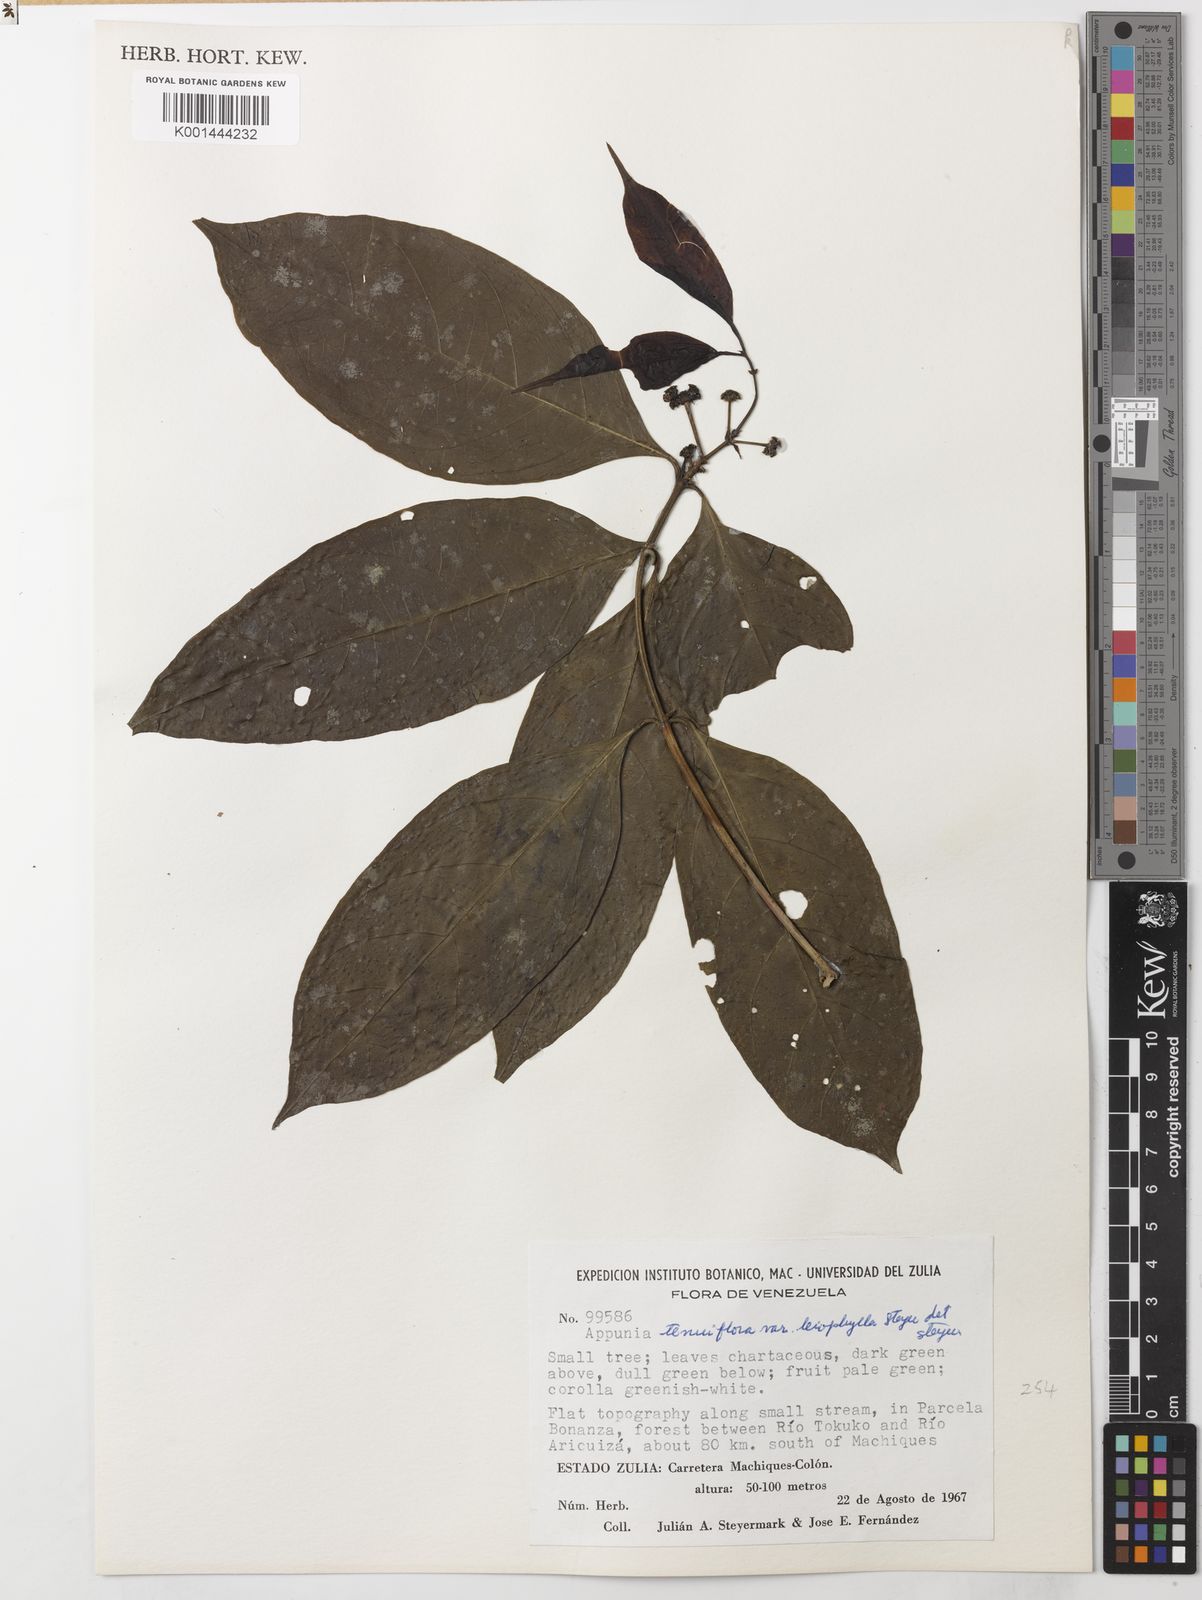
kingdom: Plantae
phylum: Tracheophyta
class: Magnoliopsida
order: Gentianales
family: Rubiaceae
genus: Appunia
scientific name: Appunia tenuiflora
